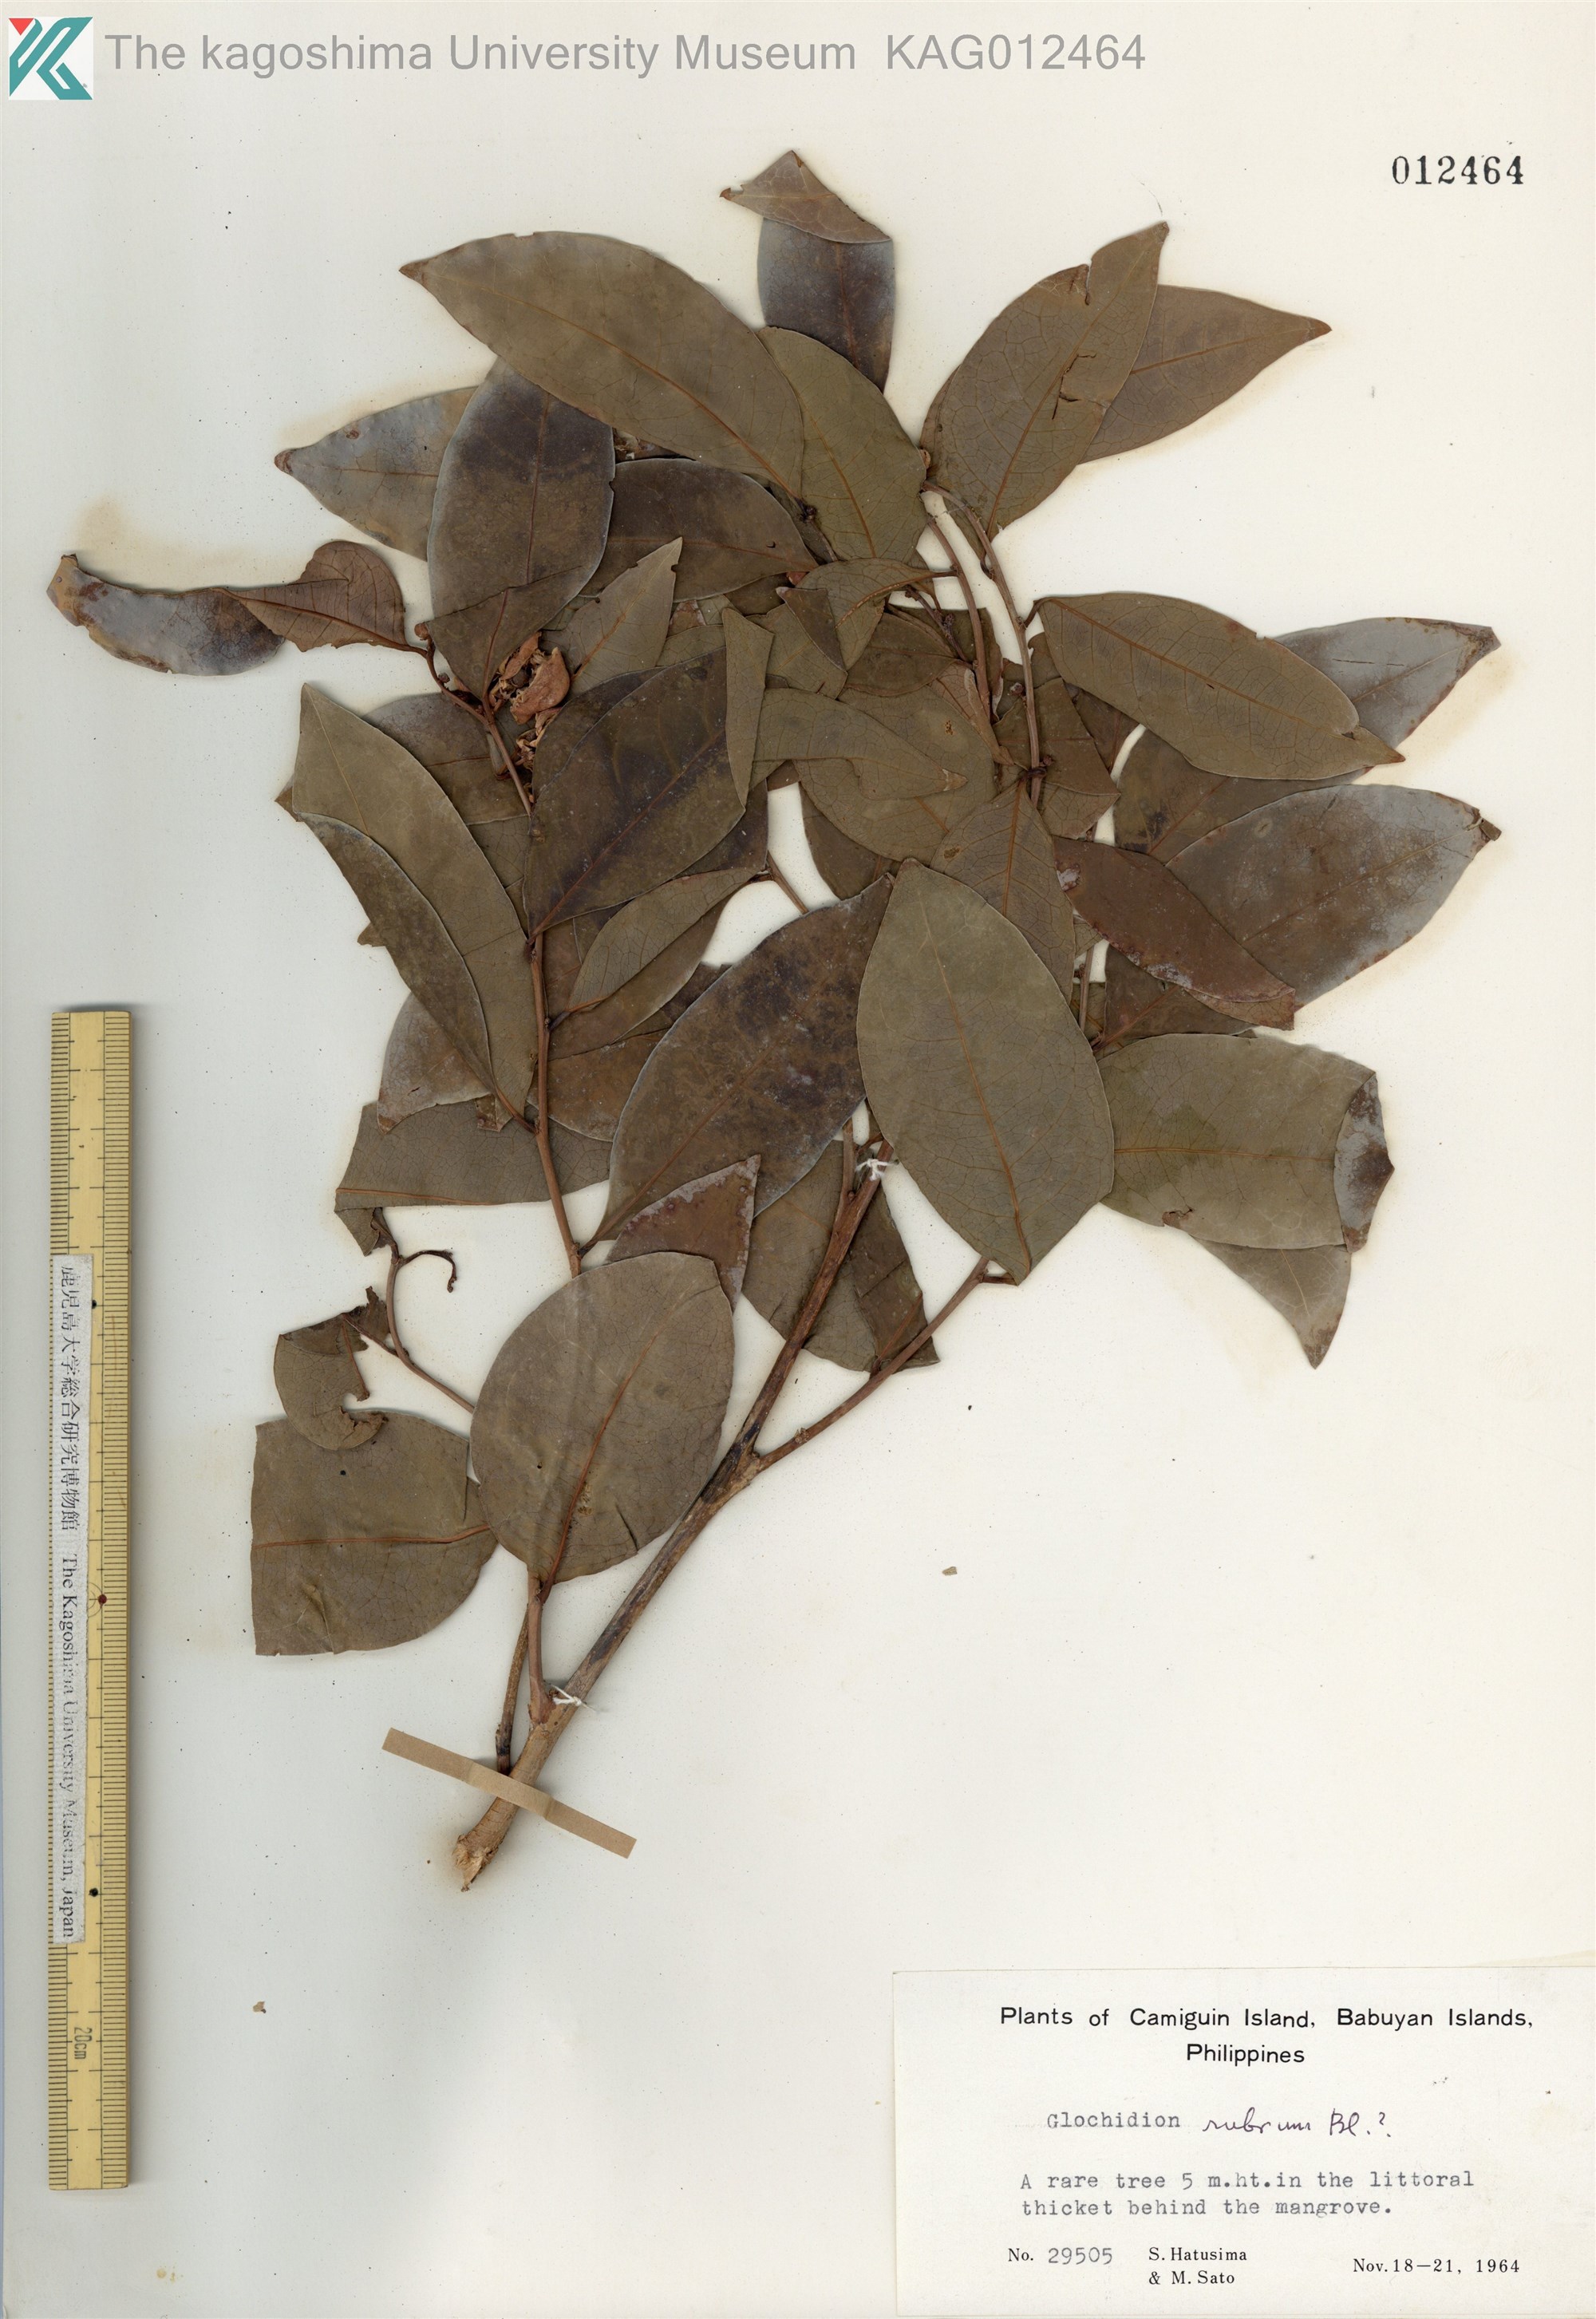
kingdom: Plantae
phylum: Tracheophyta
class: Magnoliopsida
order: Malpighiales
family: Phyllanthaceae
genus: Glochidion
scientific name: Glochidion rubrum
